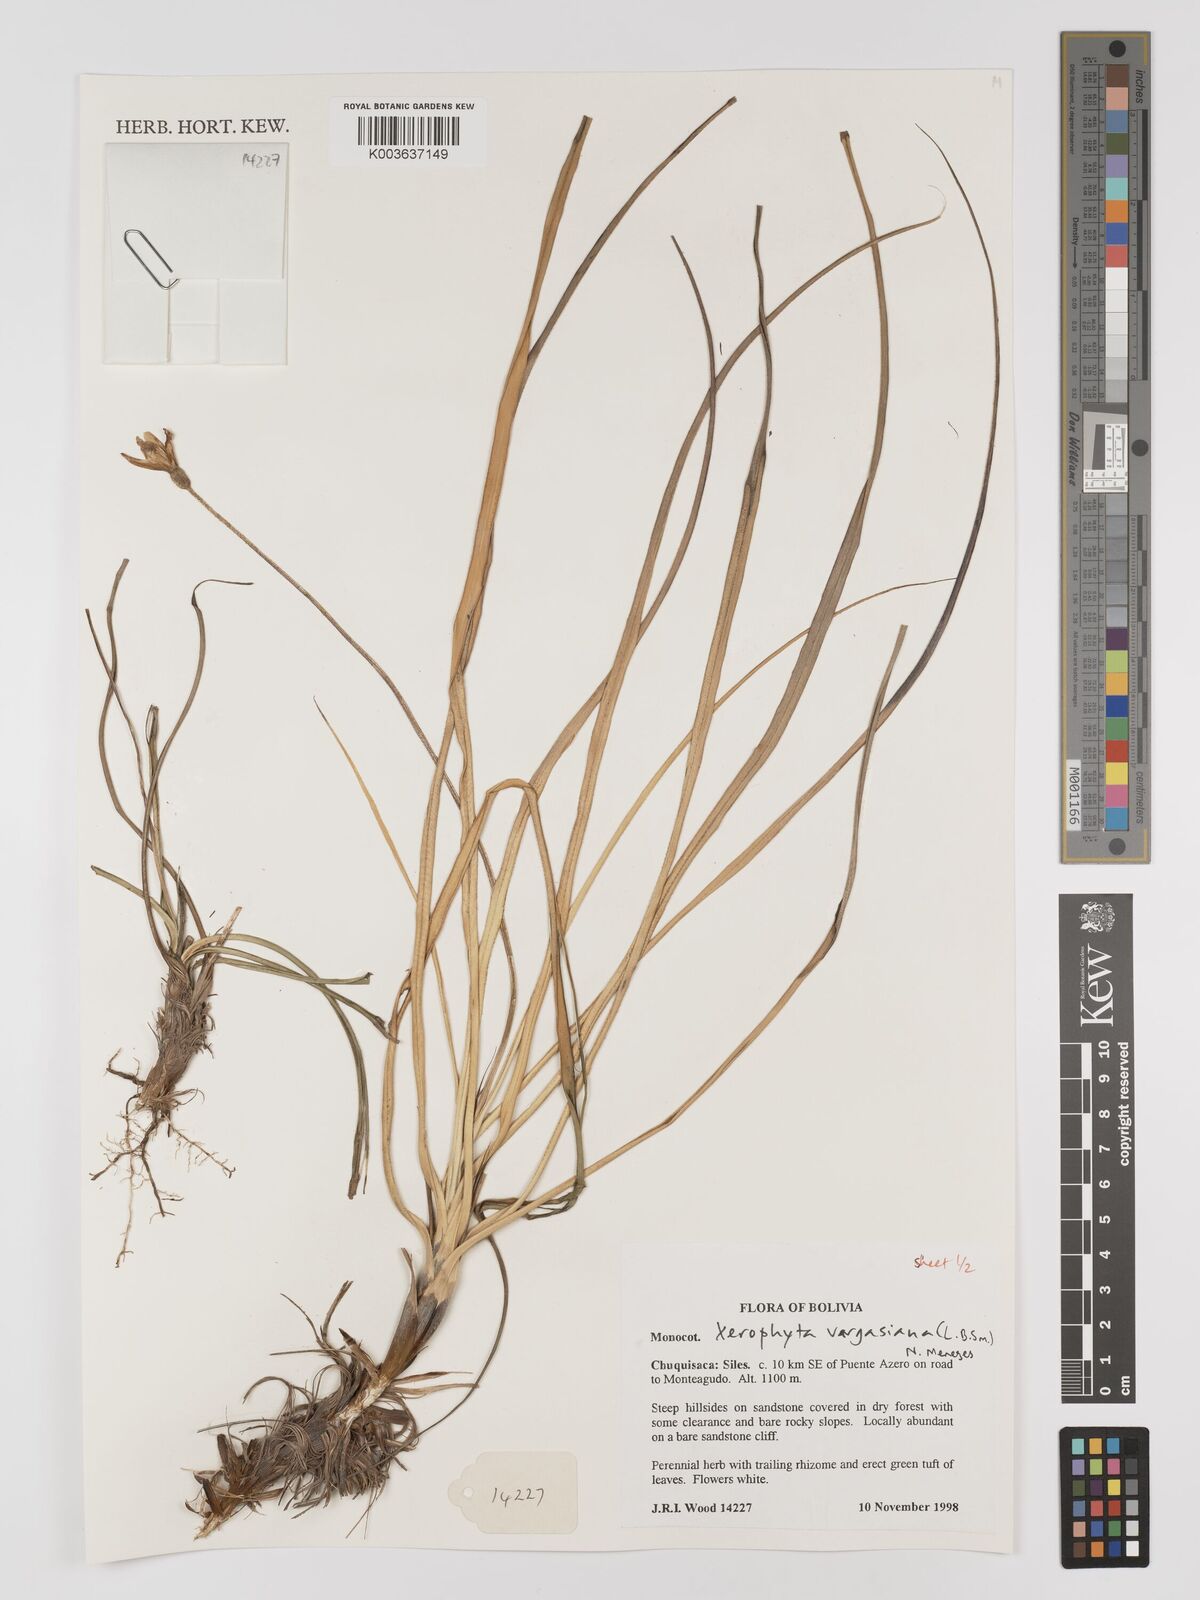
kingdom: Plantae
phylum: Tracheophyta
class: Liliopsida
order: Pandanales
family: Velloziaceae
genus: Barbaceniopsis
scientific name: Barbaceniopsis vargasiana
